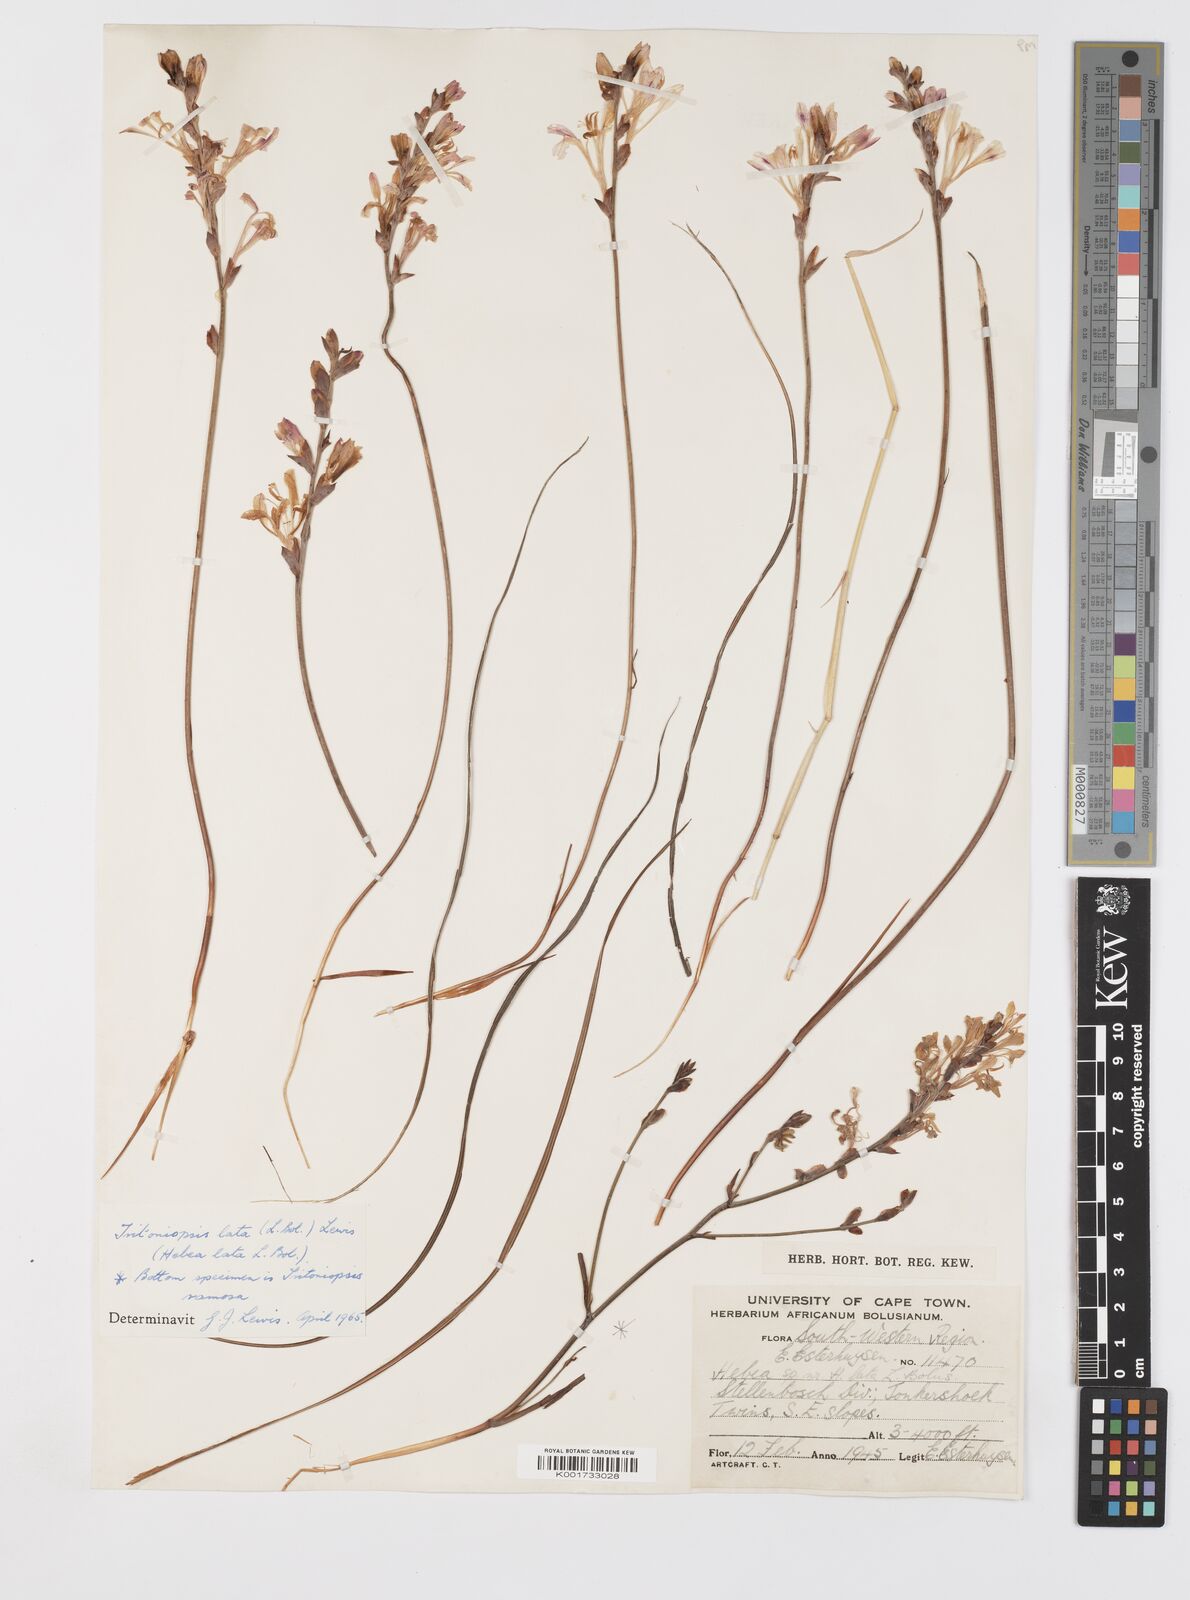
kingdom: Plantae
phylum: Tracheophyta
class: Liliopsida
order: Asparagales
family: Iridaceae
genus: Tritoniopsis
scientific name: Tritoniopsis lata
